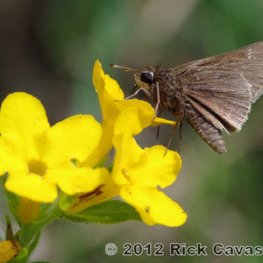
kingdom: Animalia
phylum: Arthropoda
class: Insecta
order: Lepidoptera
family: Hesperiidae
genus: Atrytonopsis
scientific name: Atrytonopsis hianna
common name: Dusted Skipper
